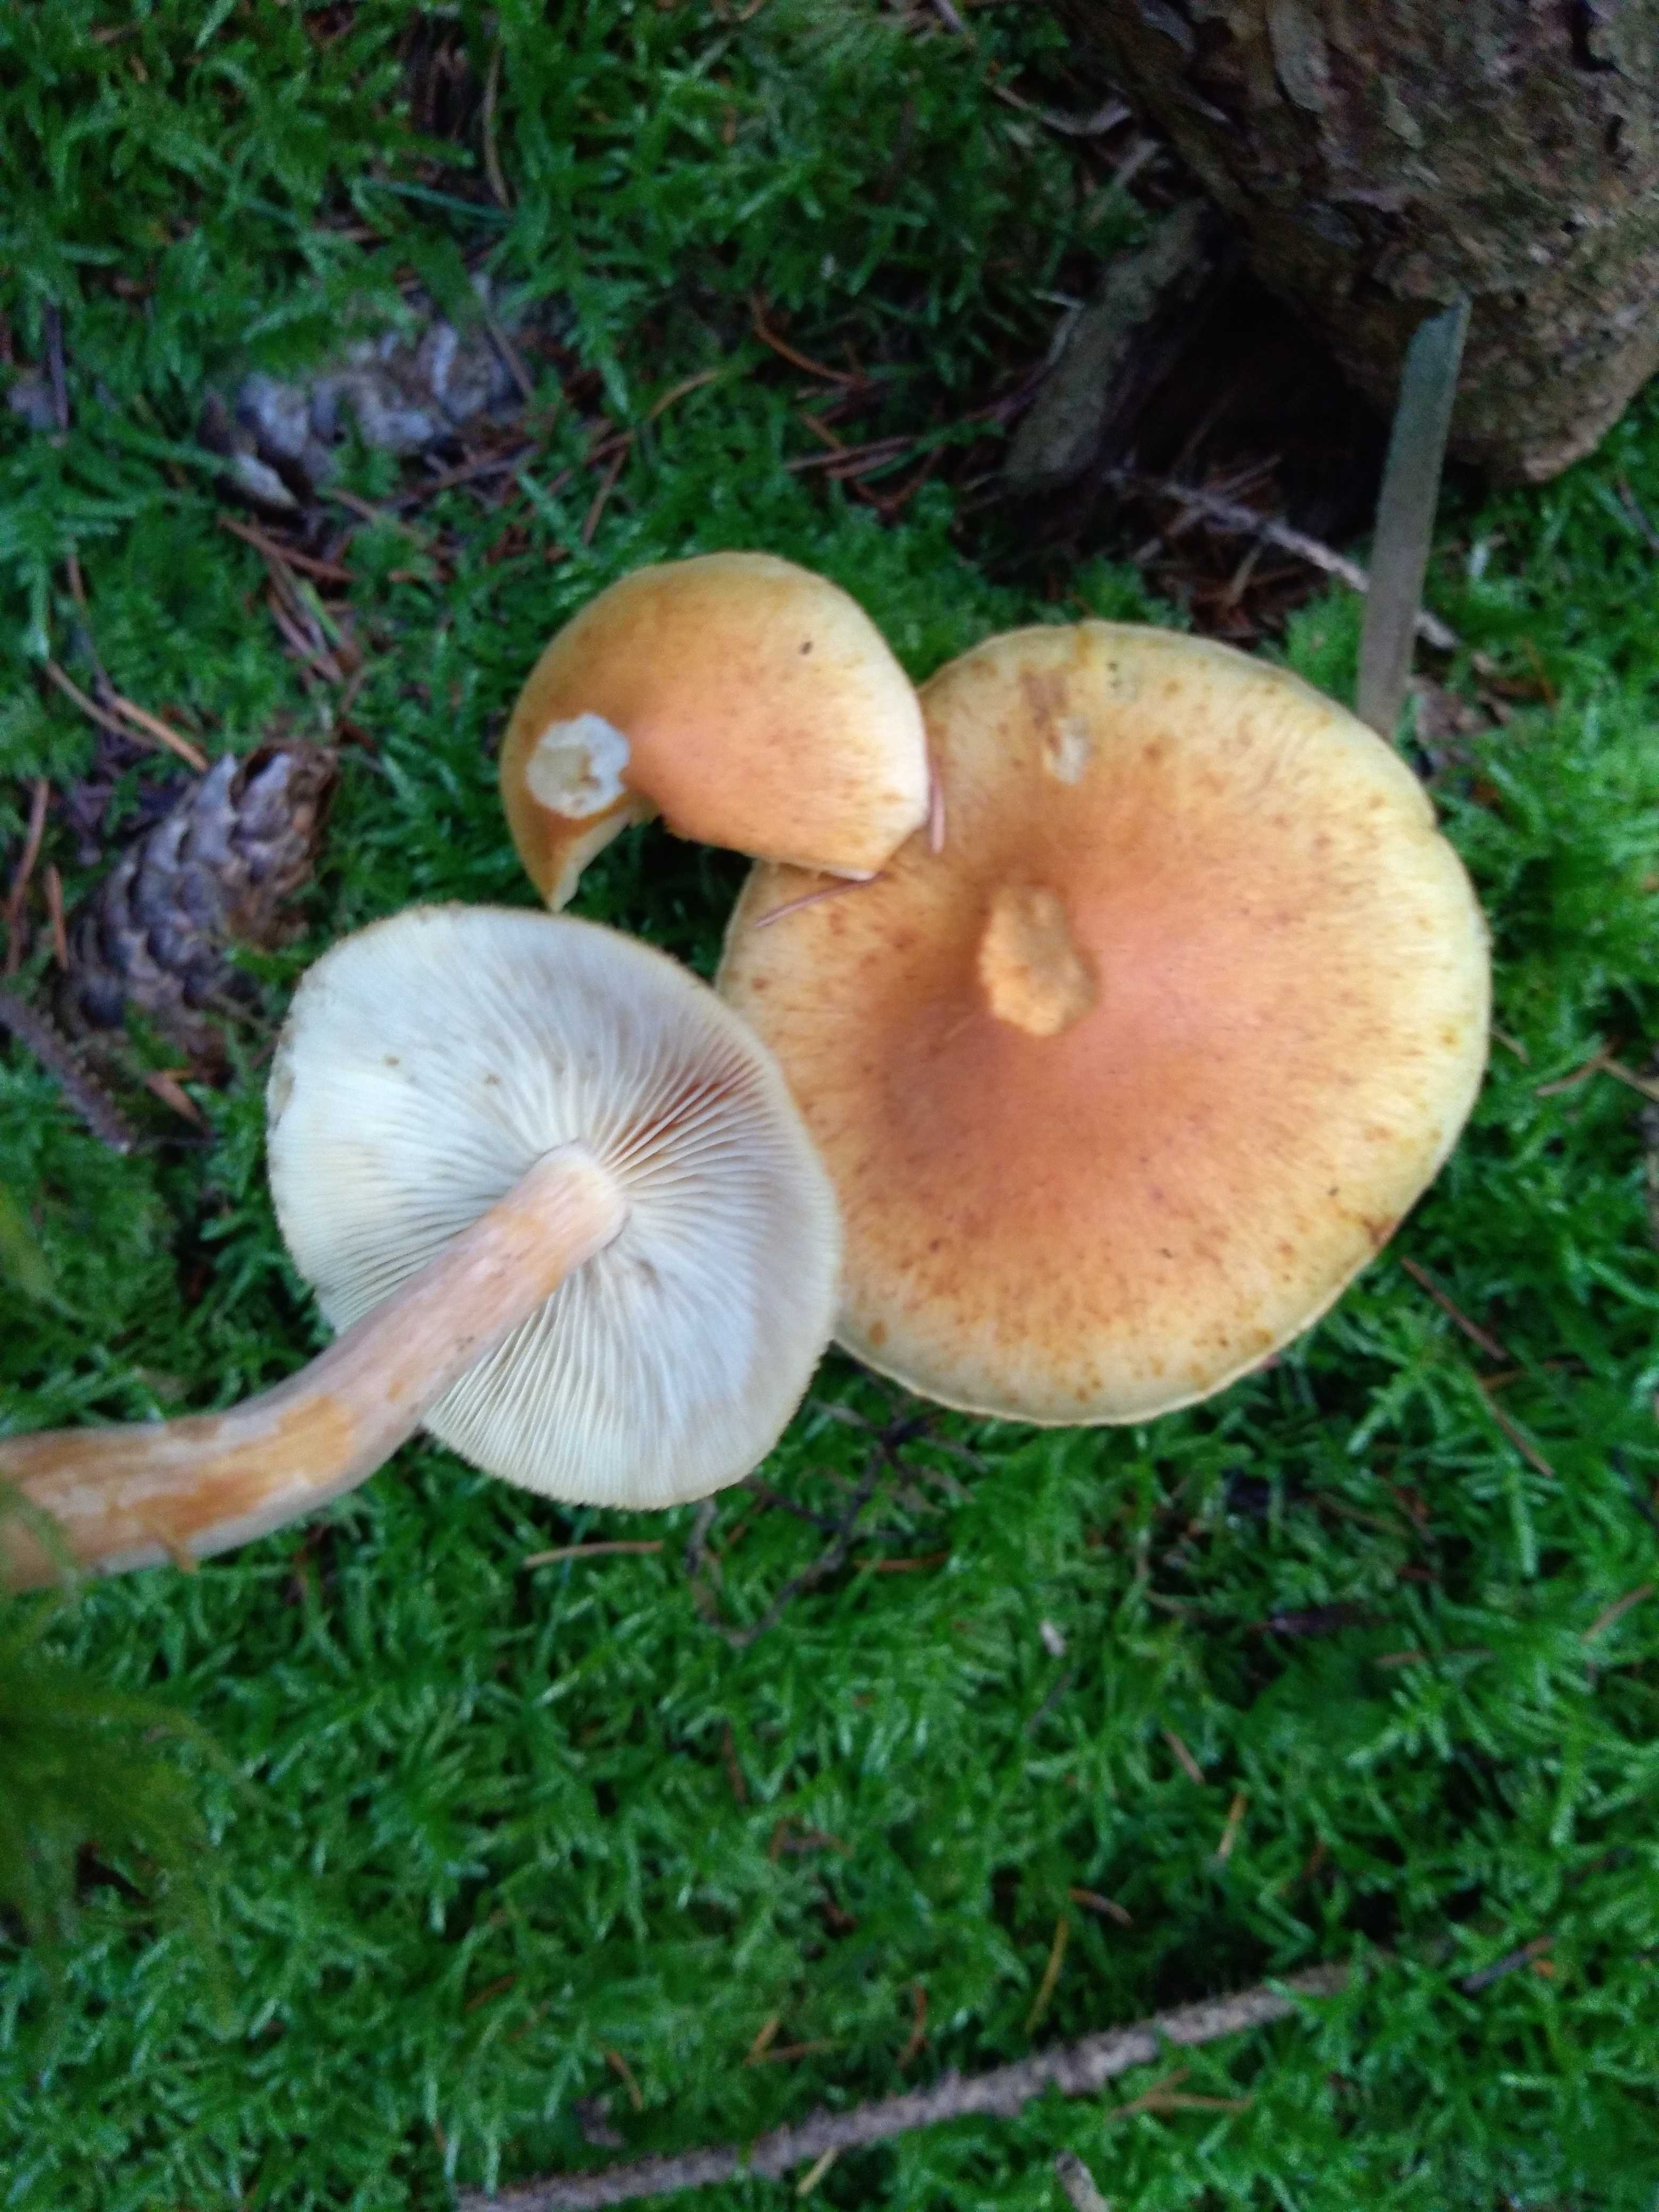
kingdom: Fungi
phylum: Basidiomycota
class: Agaricomycetes
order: Agaricales
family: Hymenogastraceae
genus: Gymnopilus
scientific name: Gymnopilus penetrans
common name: plettet flammehat
